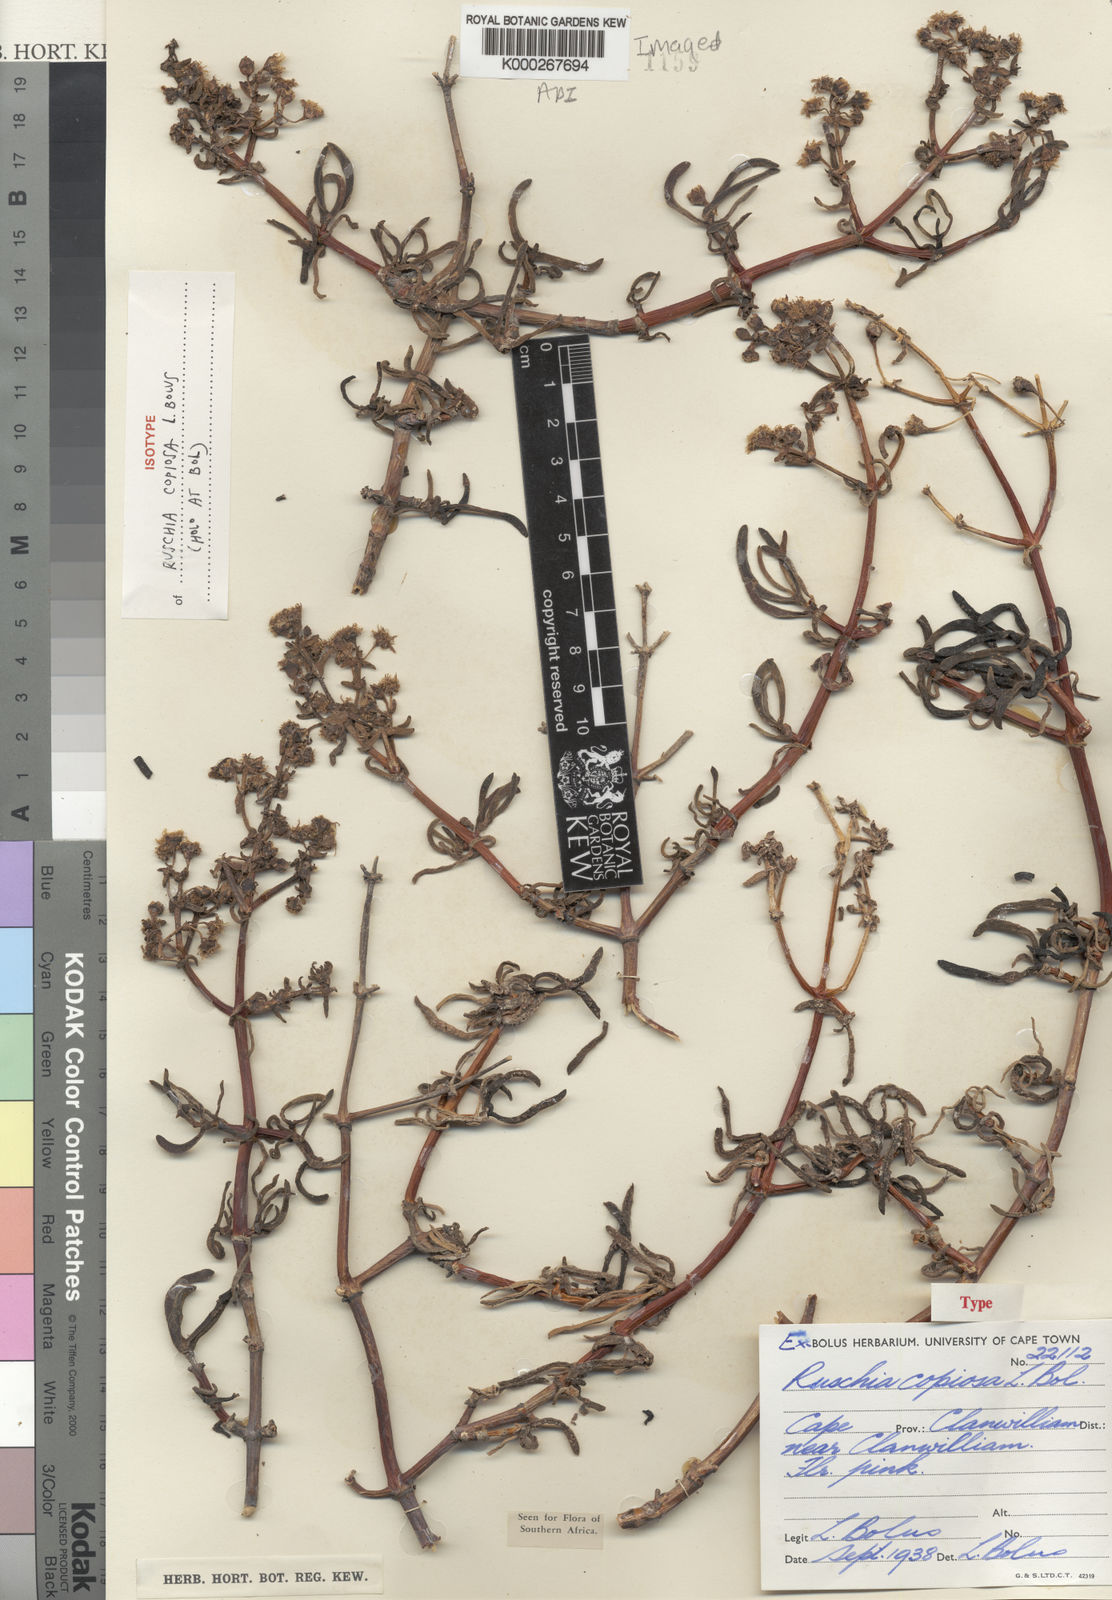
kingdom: Plantae
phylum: Tracheophyta
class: Magnoliopsida
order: Caryophyllales
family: Aizoaceae
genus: Ruschia
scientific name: Ruschia
